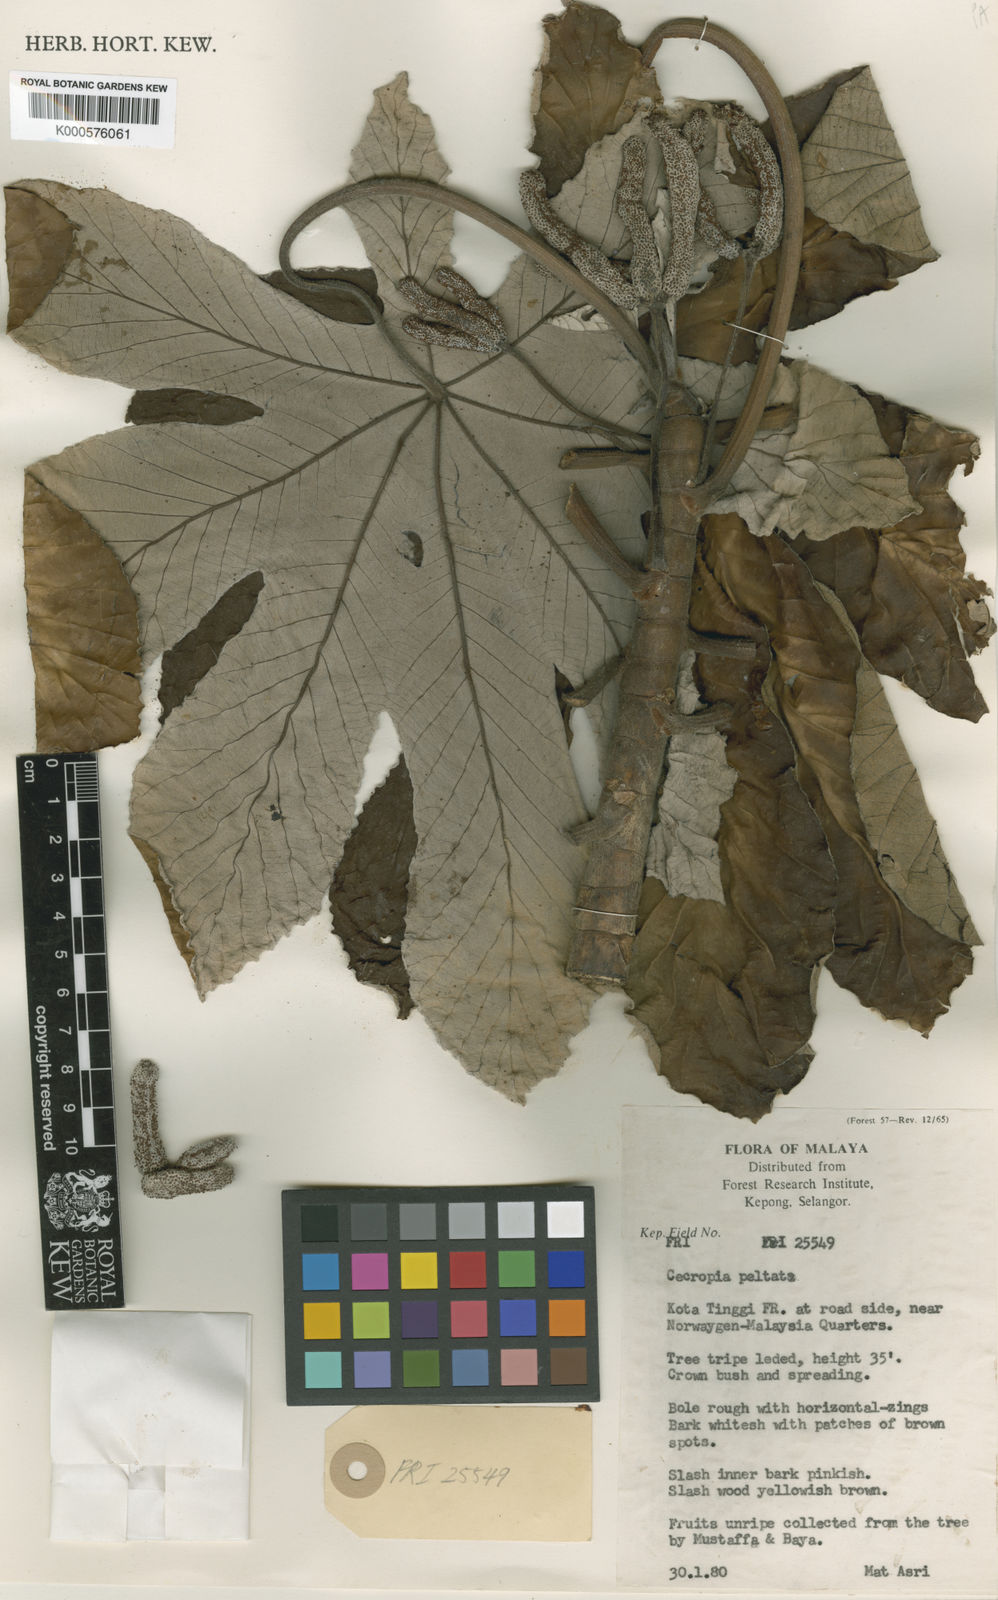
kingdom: Plantae
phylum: Tracheophyta
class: Magnoliopsida
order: Rosales
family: Urticaceae
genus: Cecropia
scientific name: Cecropia peltata
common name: Trumpet-tree
